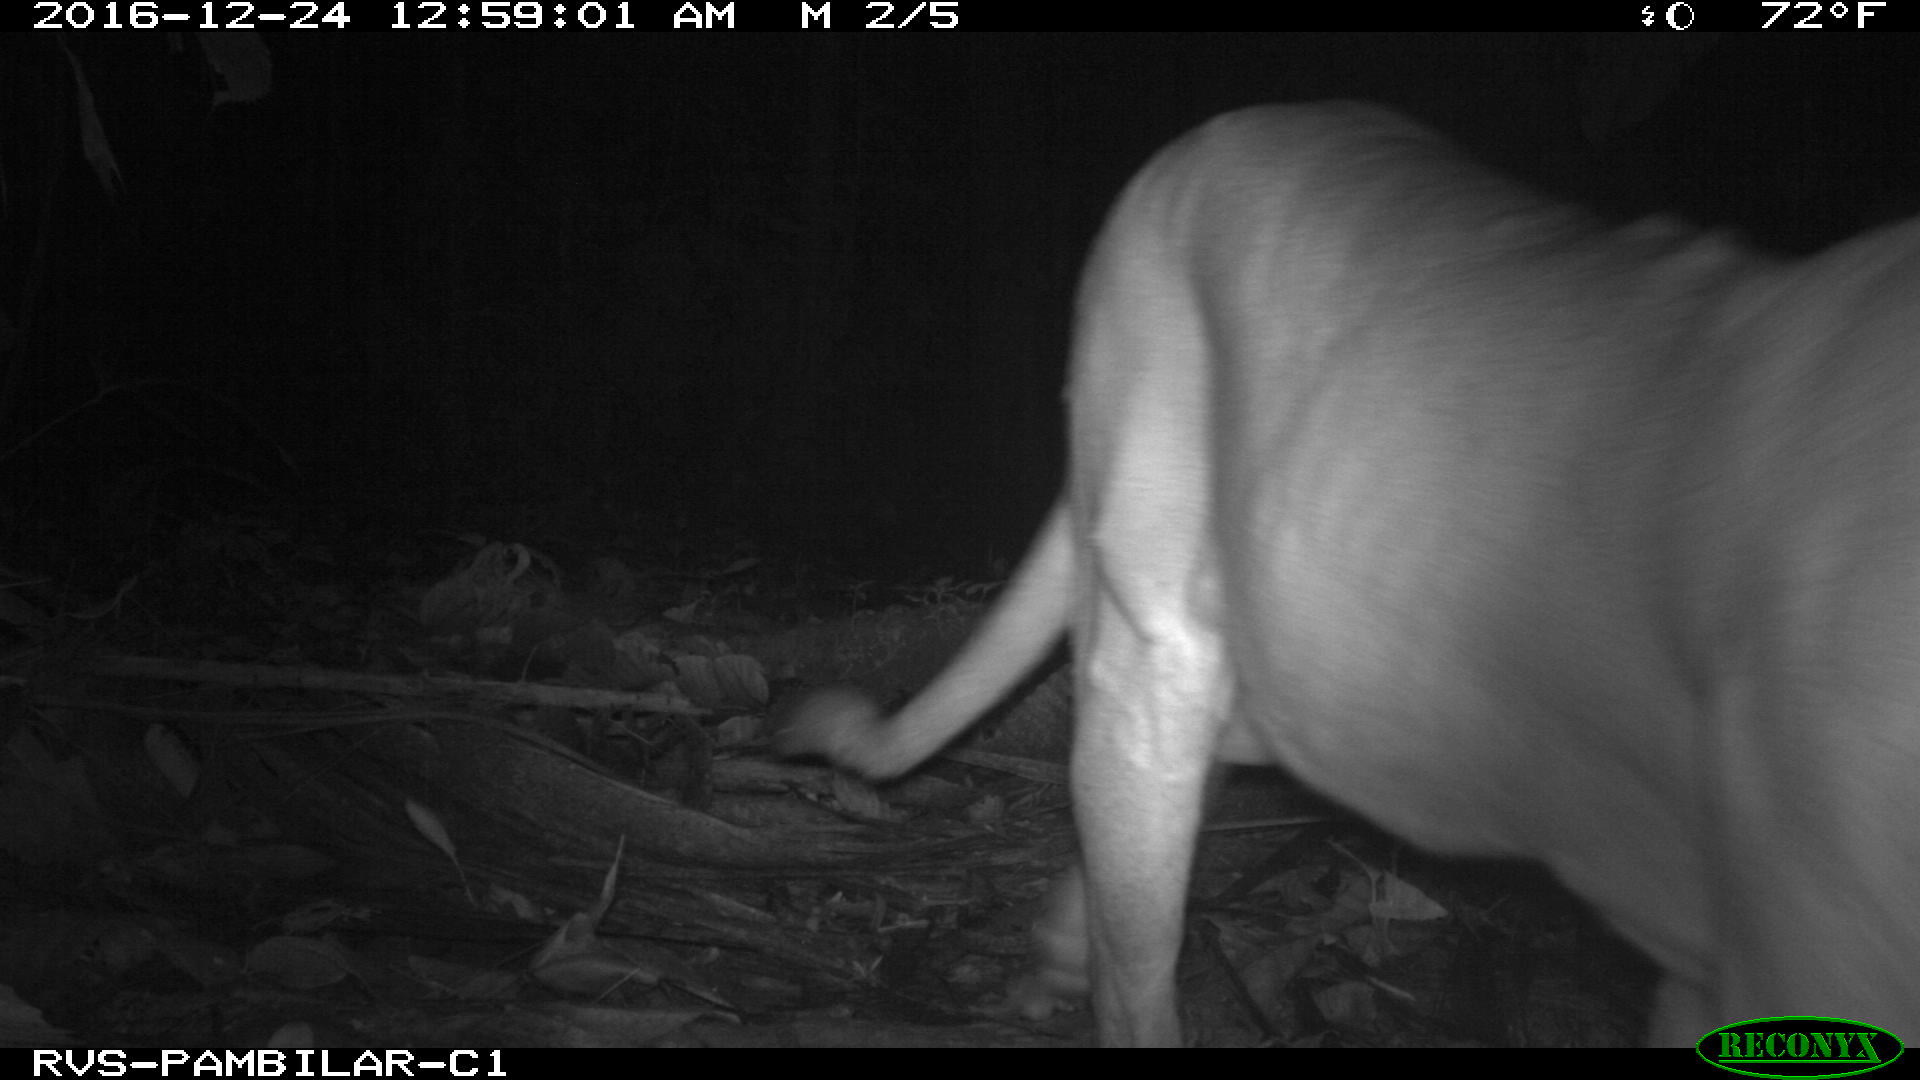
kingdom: Animalia
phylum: Chordata
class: Mammalia
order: Carnivora
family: Felidae
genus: Puma
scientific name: Puma concolor
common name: Puma
